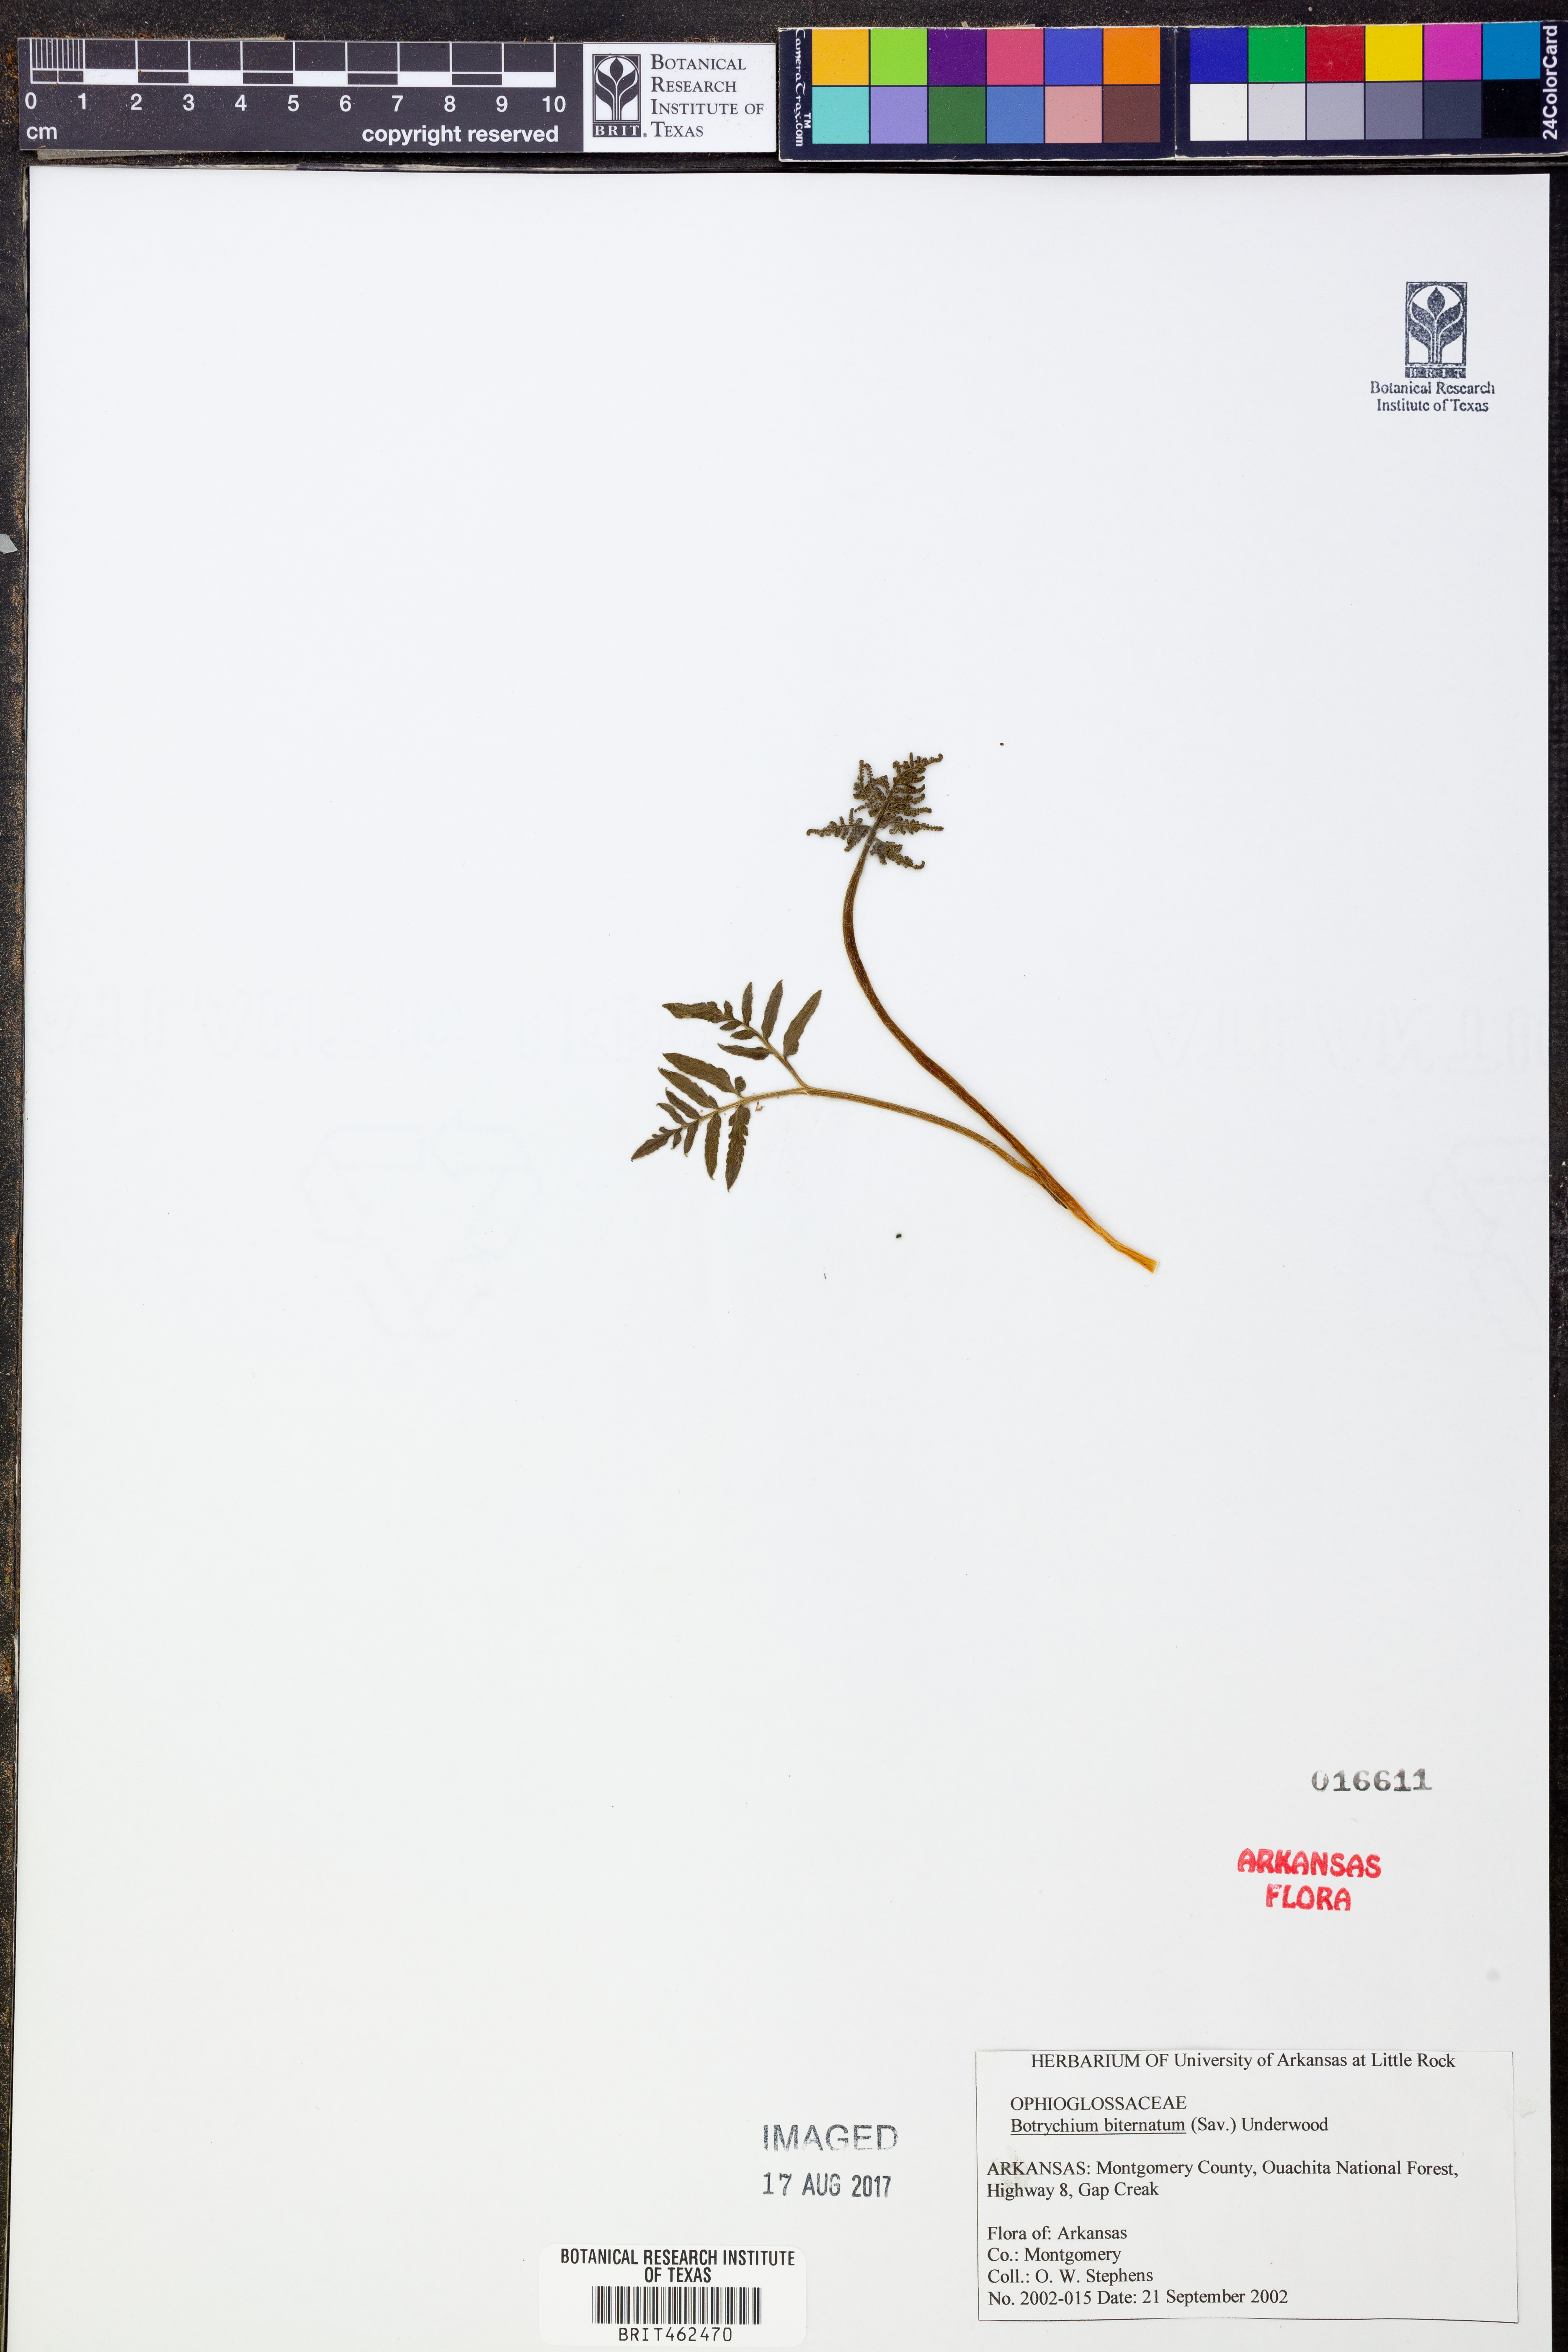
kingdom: Plantae
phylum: Tracheophyta
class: Polypodiopsida
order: Ophioglossales
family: Ophioglossaceae
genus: Sceptridium
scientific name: Sceptridium biternatum
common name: Sparse-lobed grapefern
